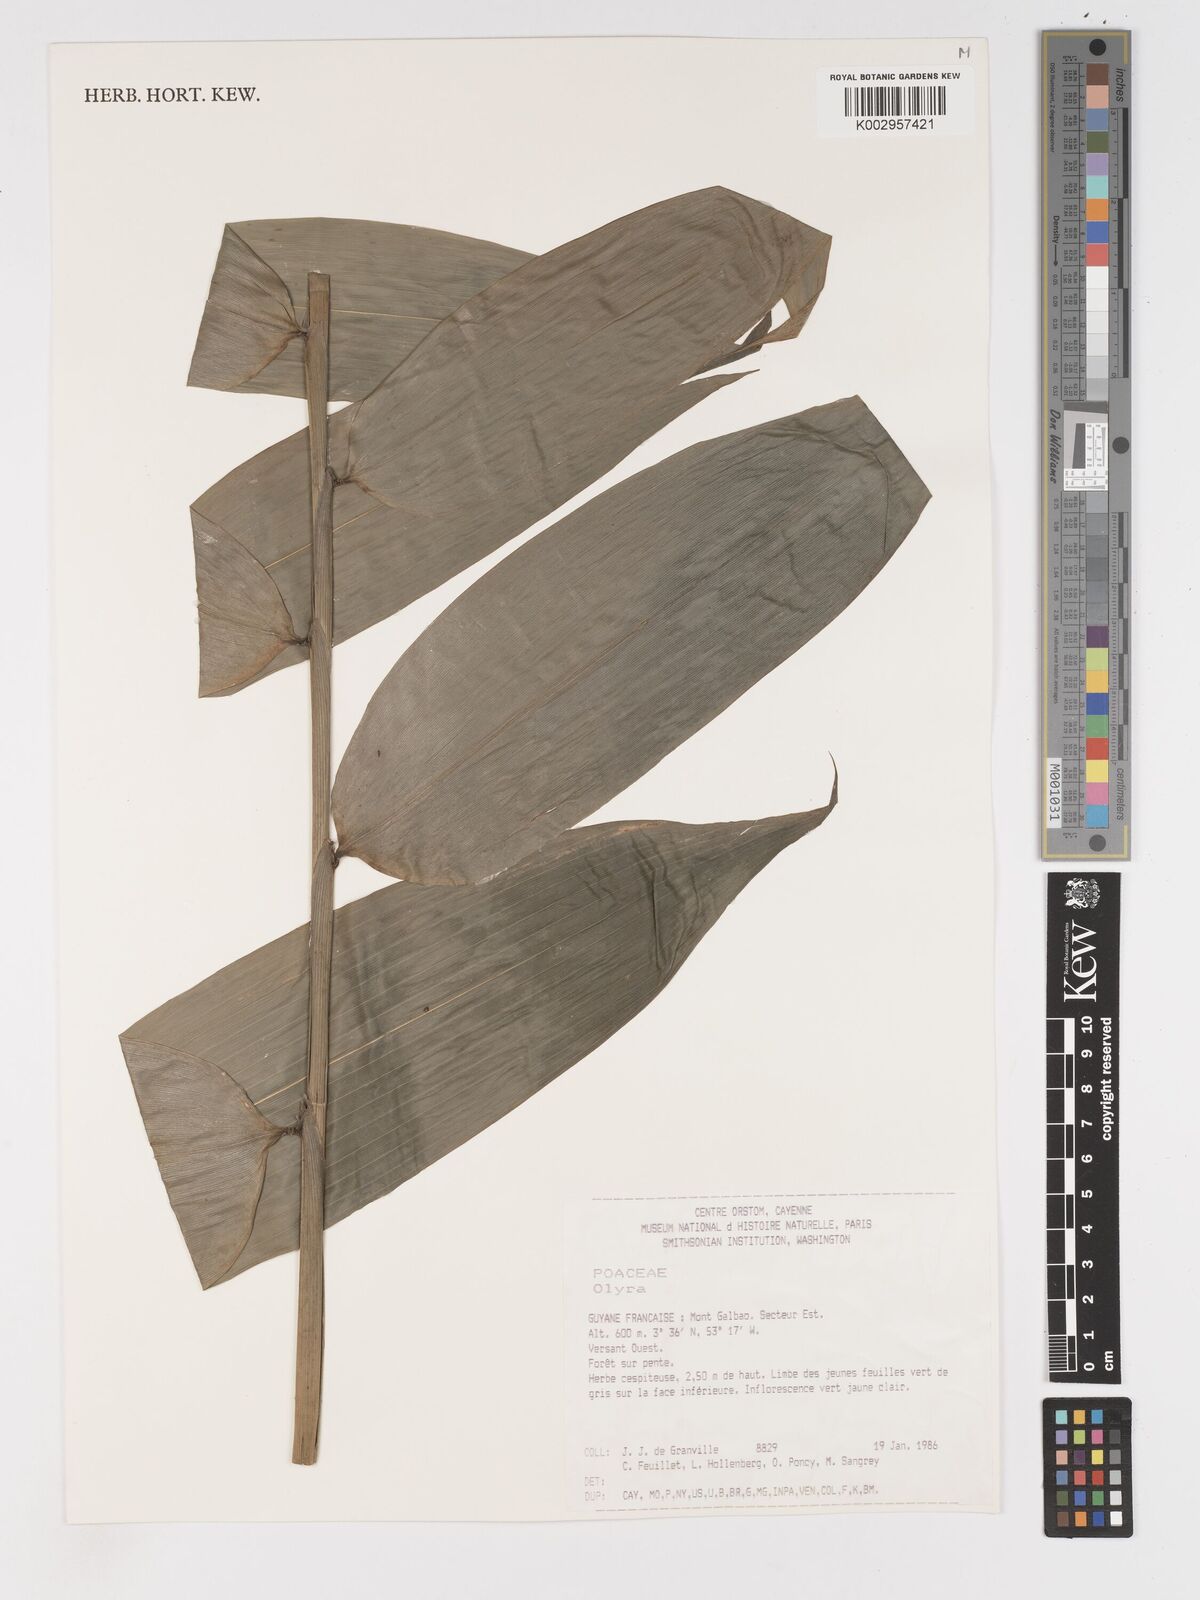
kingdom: Plantae
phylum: Tracheophyta
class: Liliopsida
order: Poales
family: Poaceae
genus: Olyra
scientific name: Olyra caudata
